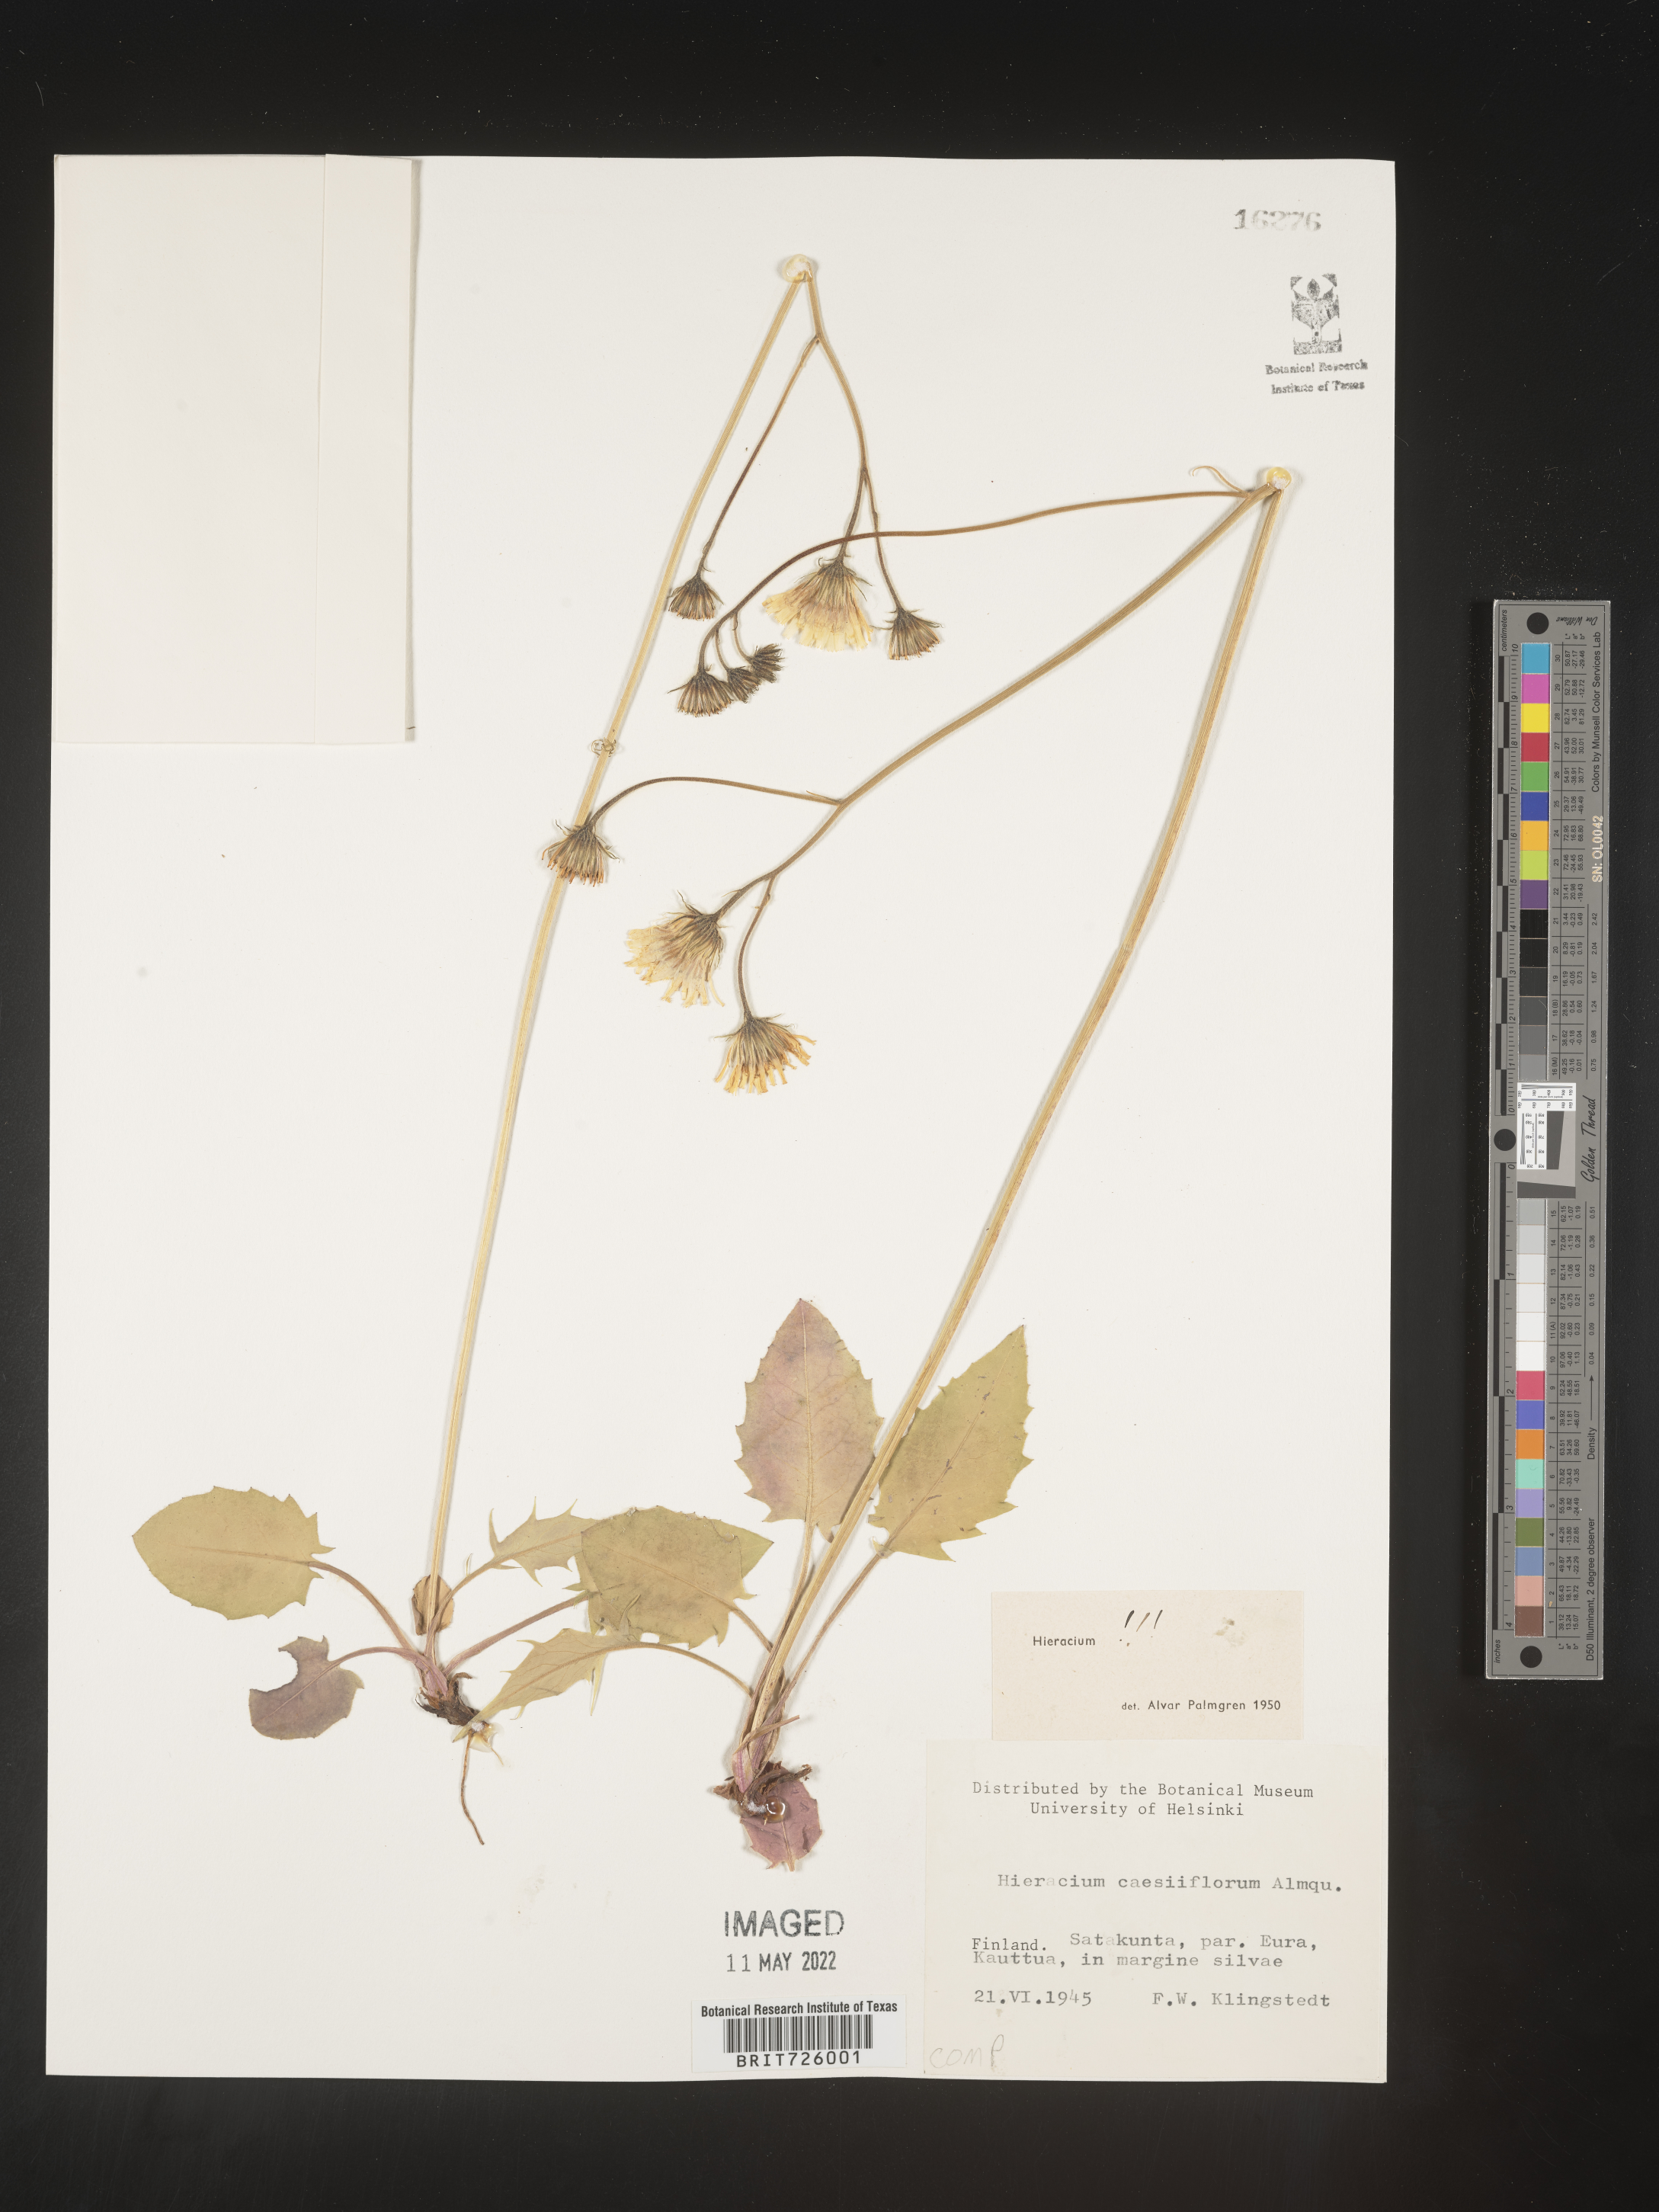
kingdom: Plantae
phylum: Tracheophyta
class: Magnoliopsida
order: Asterales
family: Asteraceae
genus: Hieracium
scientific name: Hieracium
